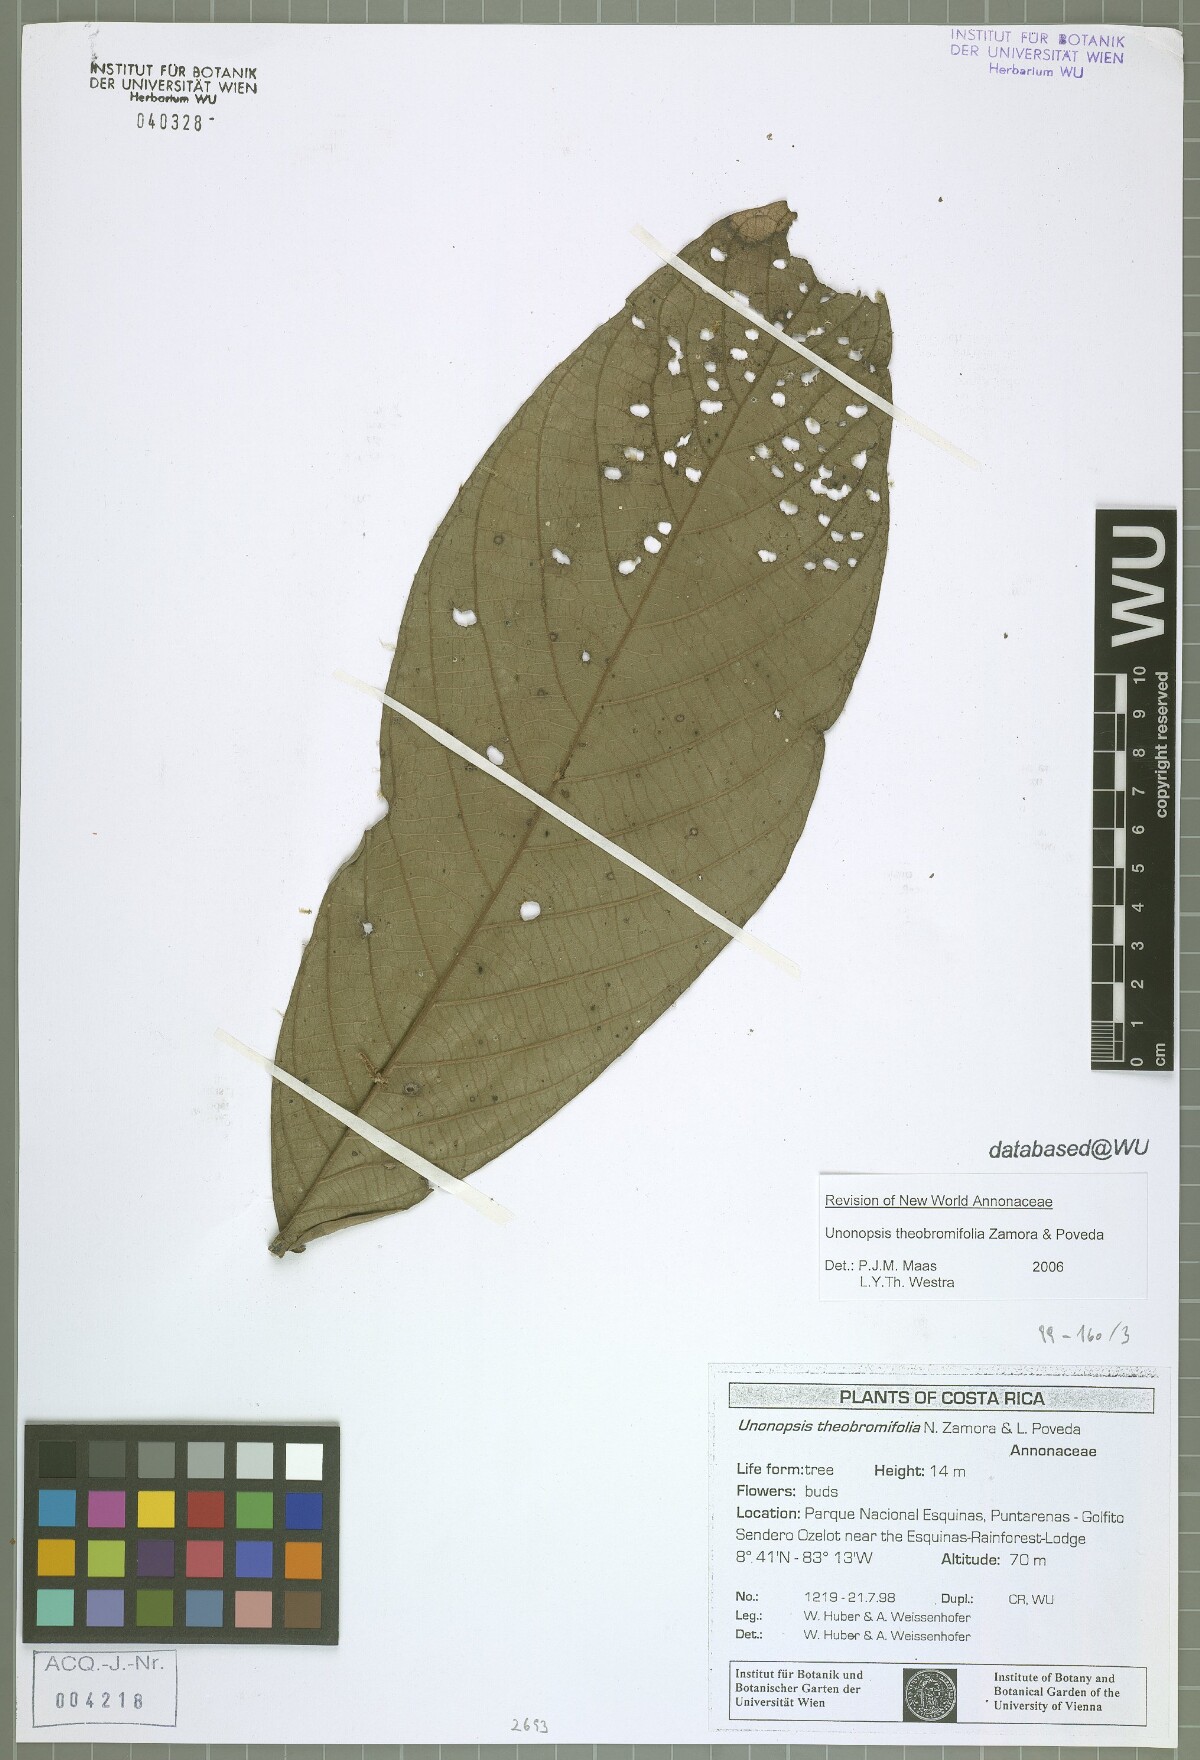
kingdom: Plantae
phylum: Tracheophyta
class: Magnoliopsida
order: Magnoliales
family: Annonaceae
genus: Unonopsis
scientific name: Unonopsis theobromifolia
